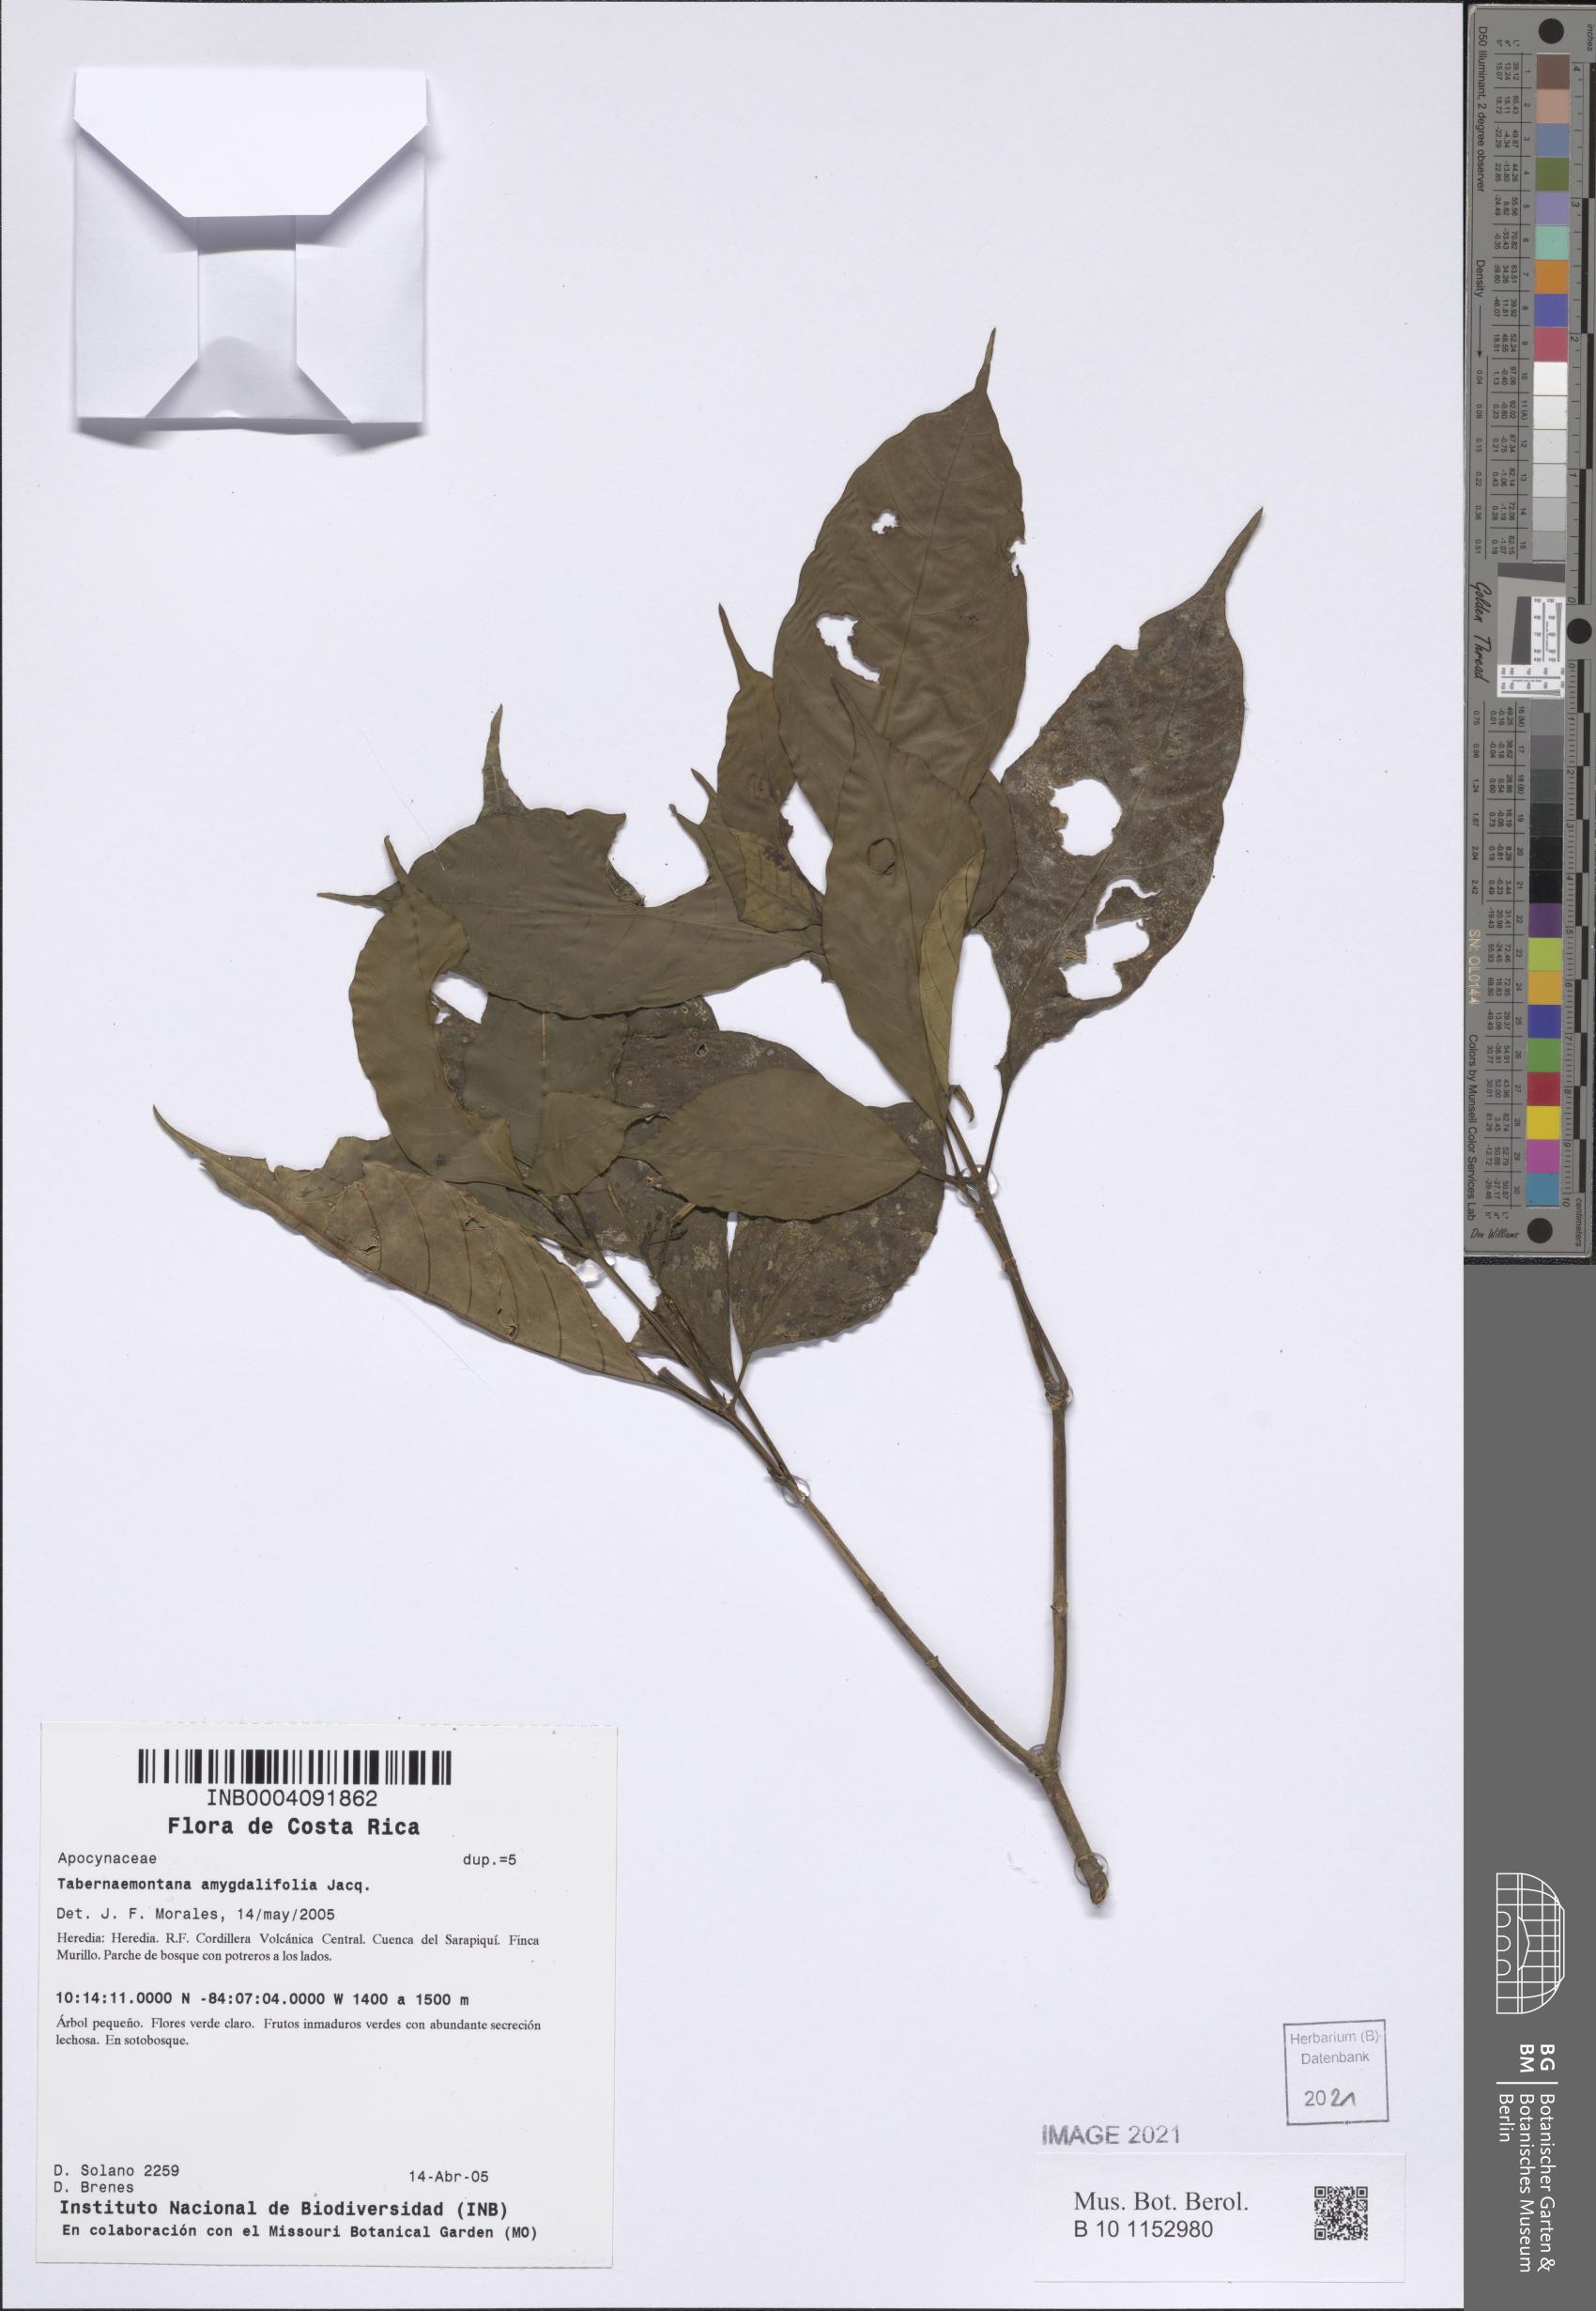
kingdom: Plantae
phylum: Tracheophyta
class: Magnoliopsida
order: Gentianales
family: Apocynaceae
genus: Tabernaemontana
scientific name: Tabernaemontana amygdalifolia
